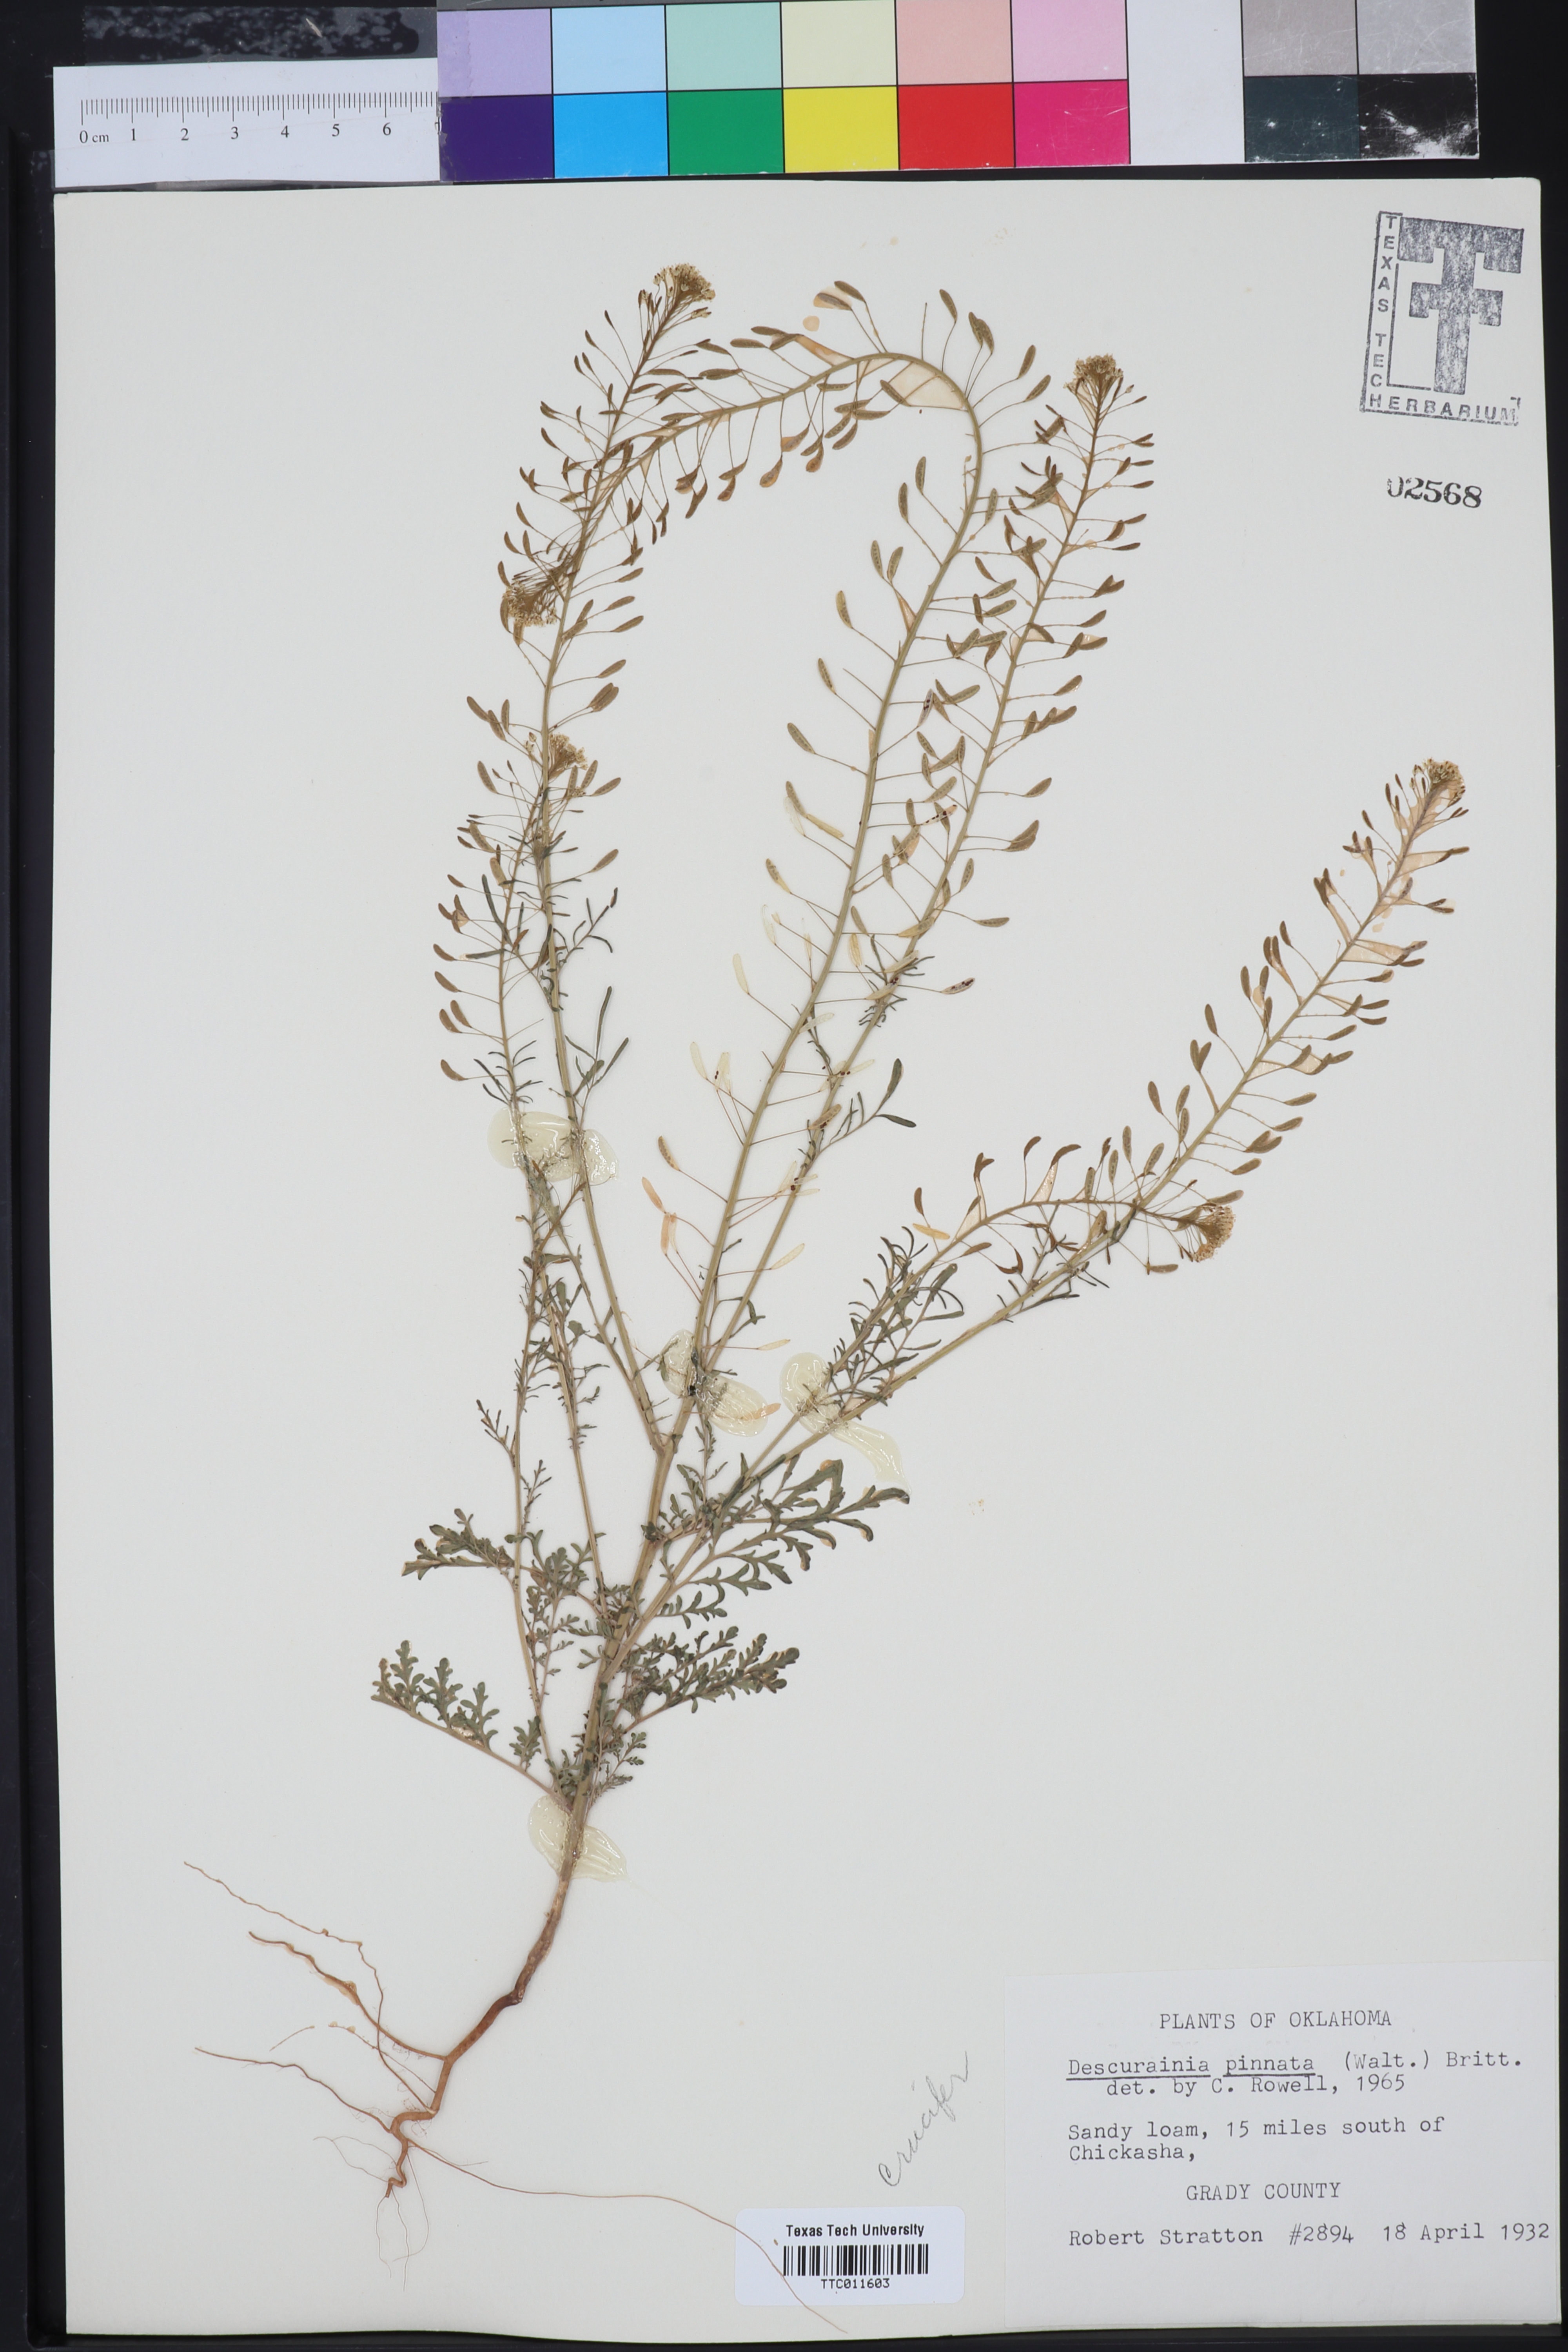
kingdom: Plantae
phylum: Tracheophyta
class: Magnoliopsida
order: Brassicales
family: Brassicaceae
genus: Descurainia
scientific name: Descurainia pinnata
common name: Western tansy mustard
